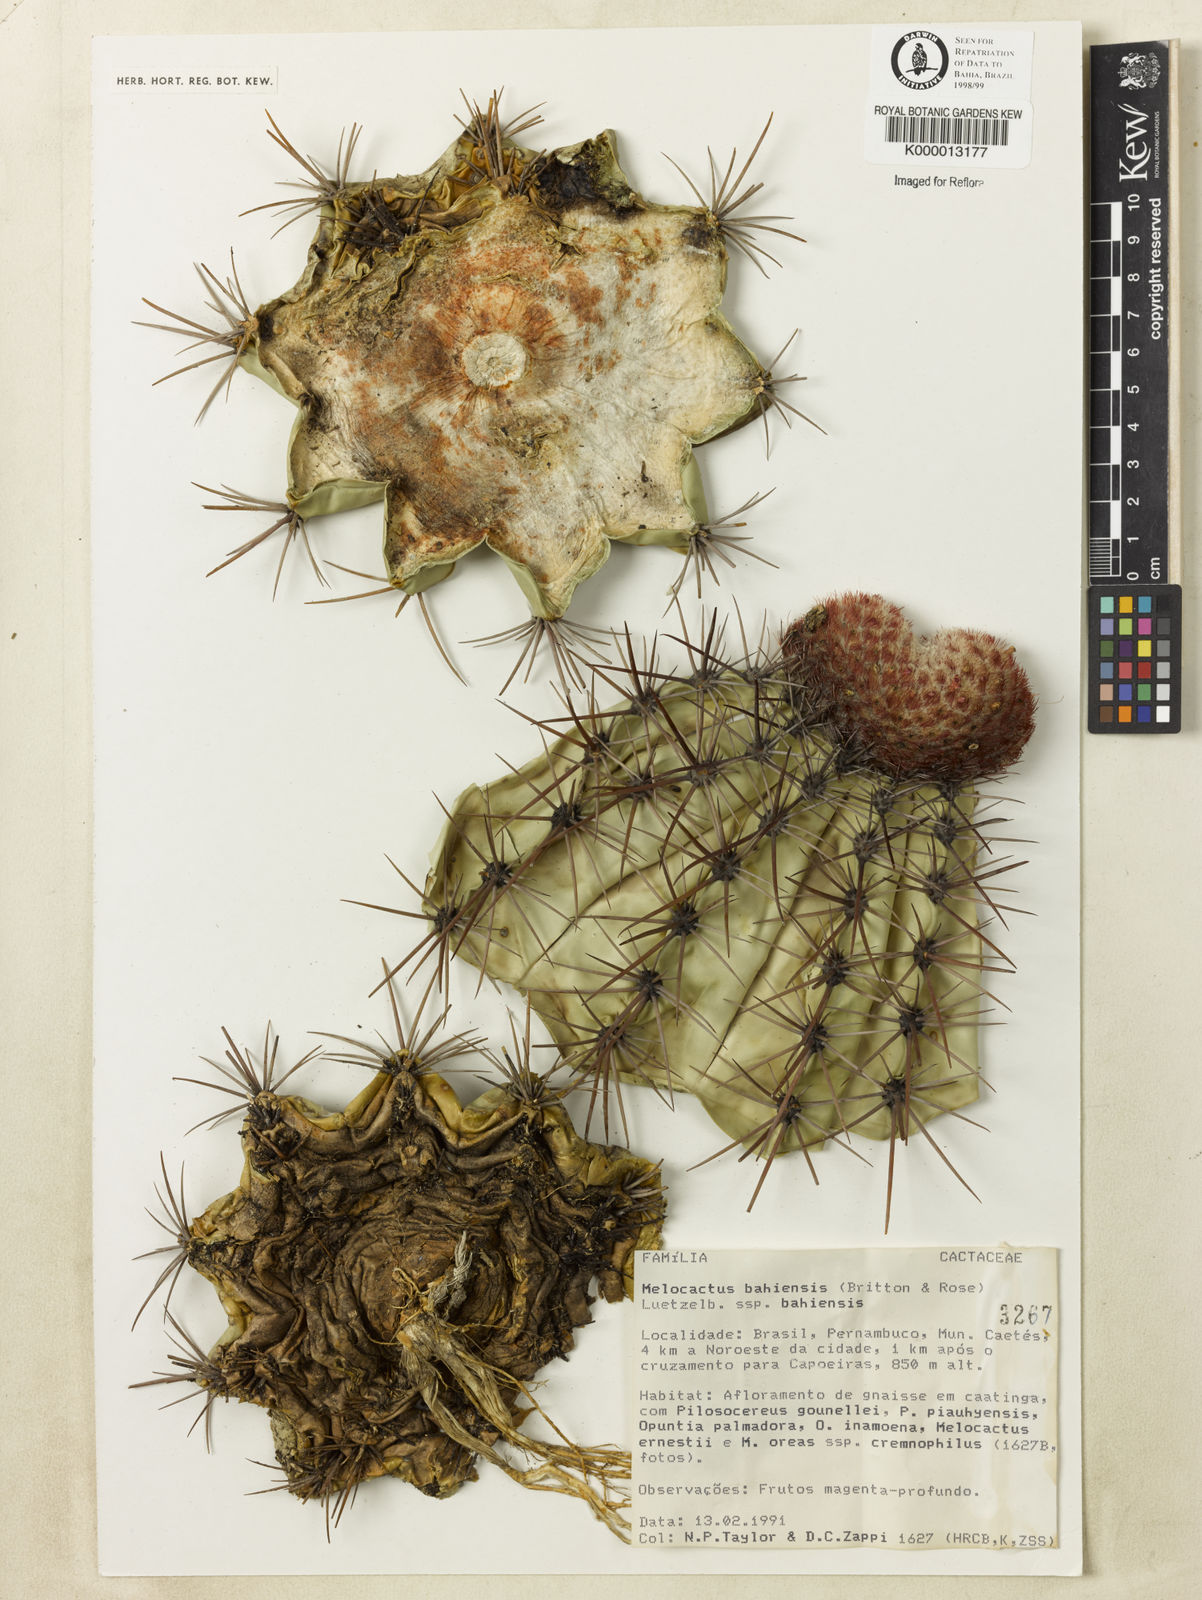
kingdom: Plantae
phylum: Tracheophyta
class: Magnoliopsida
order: Caryophyllales
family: Cactaceae
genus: Melocactus
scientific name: Melocactus bahiensis
